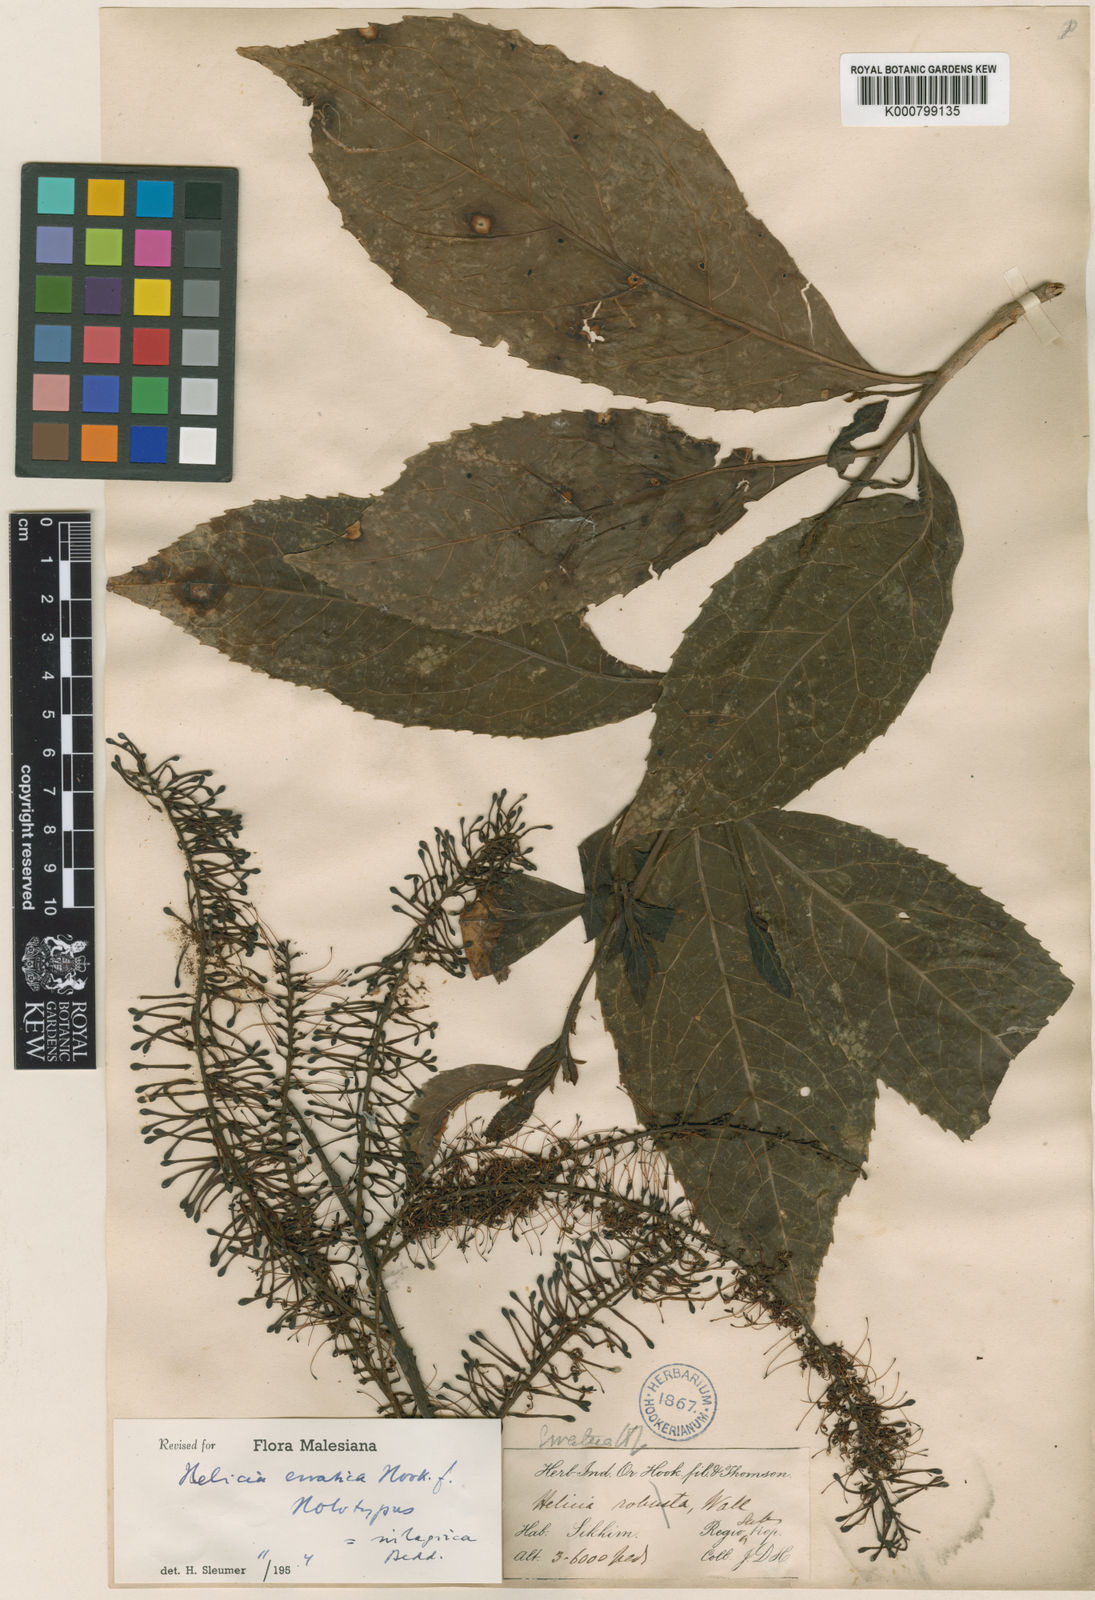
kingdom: Plantae
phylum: Tracheophyta
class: Magnoliopsida
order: Proteales
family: Proteaceae
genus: Helicia
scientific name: Helicia nilagirica
